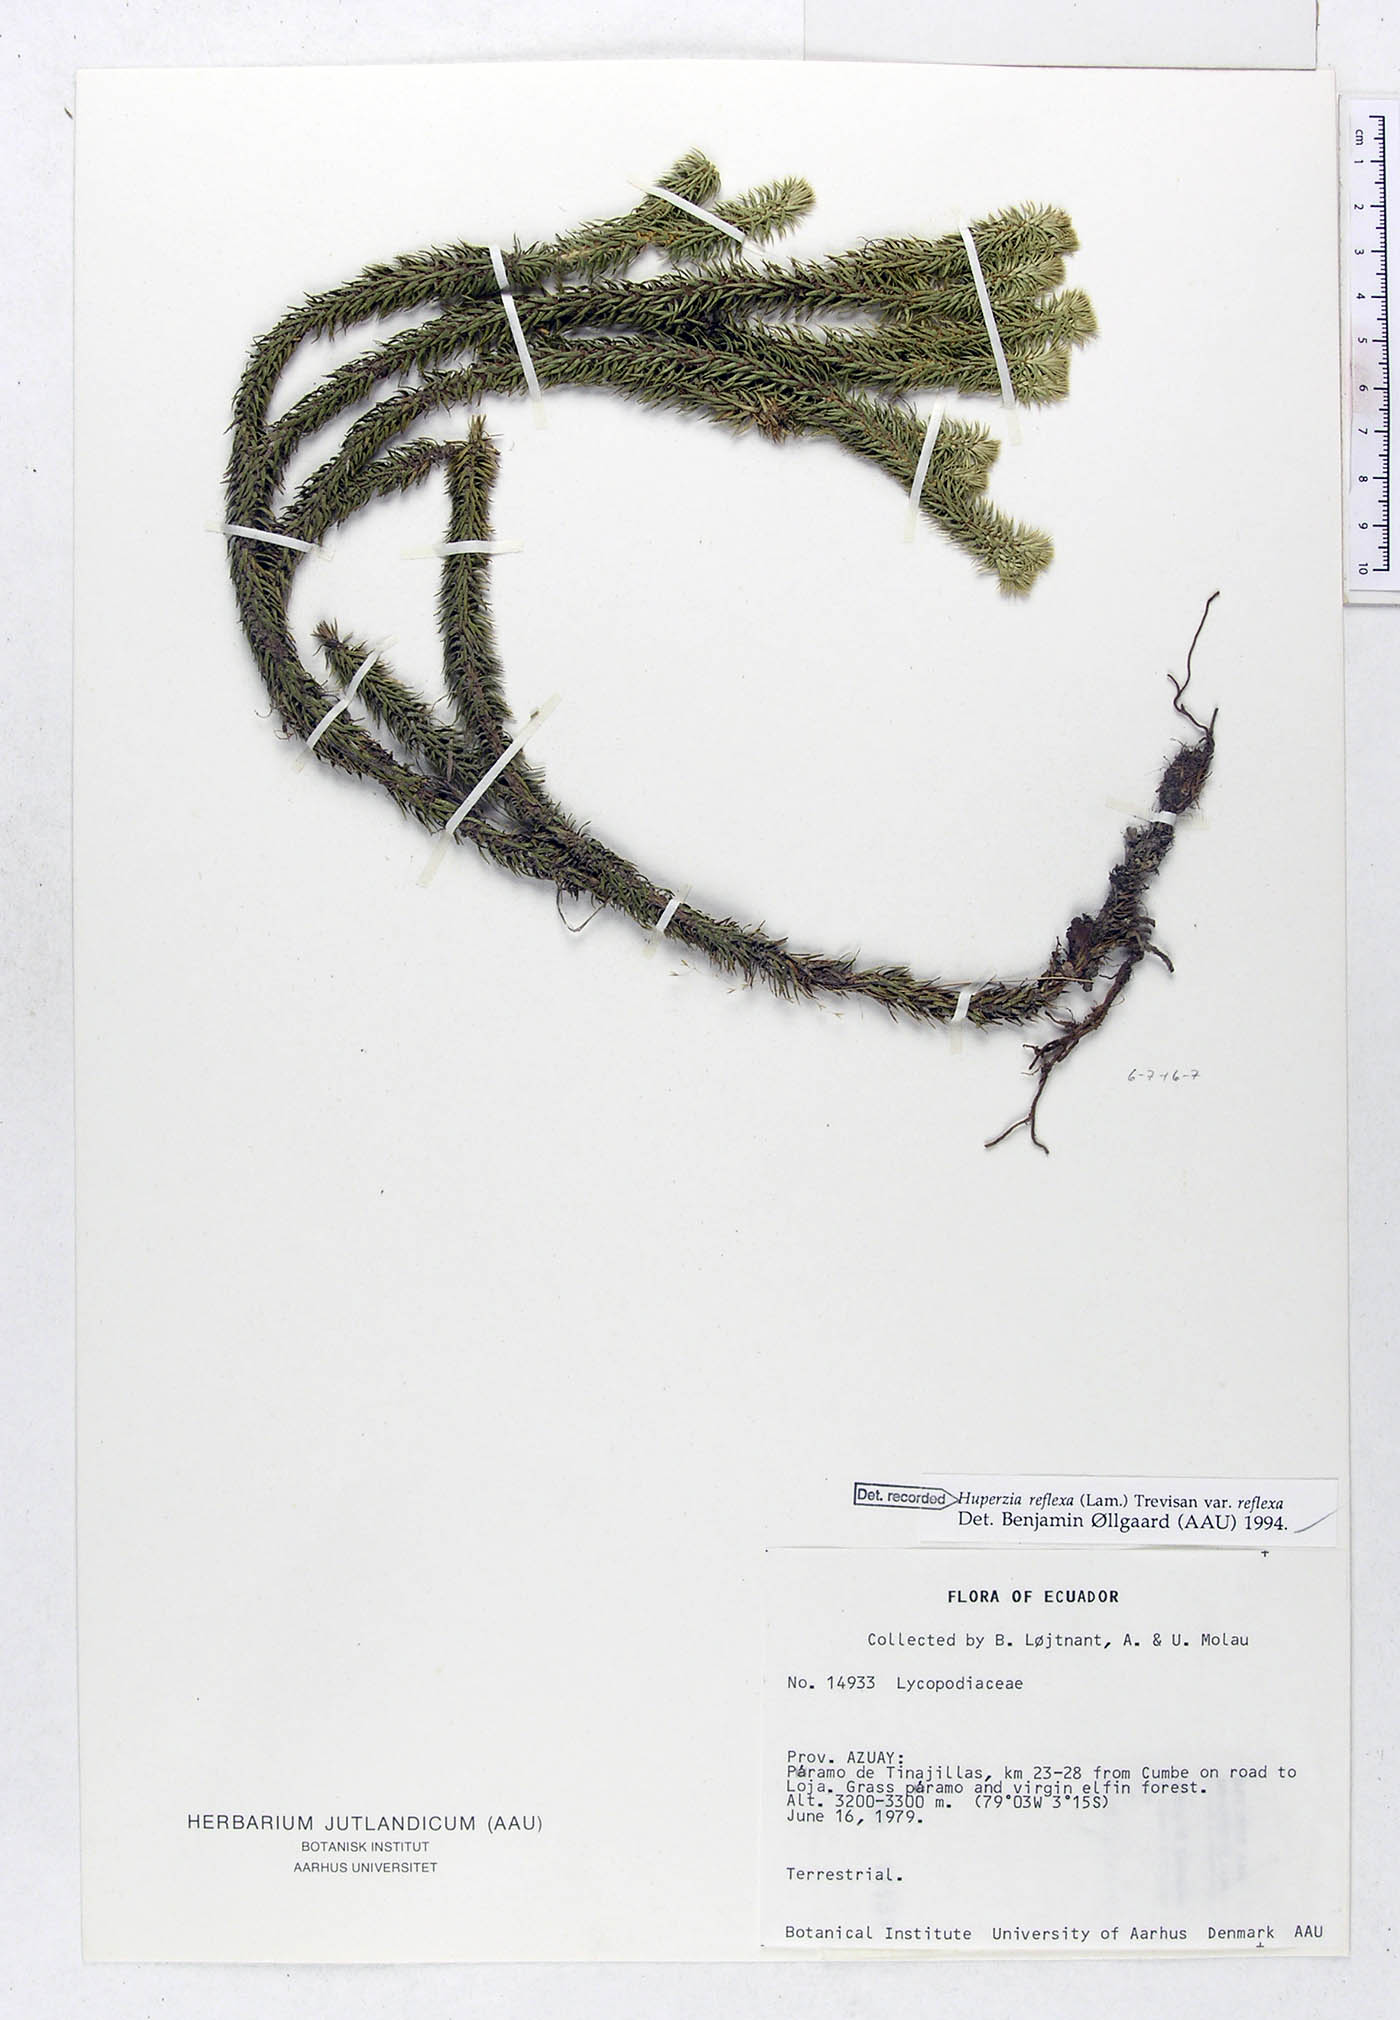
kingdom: Plantae
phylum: Tracheophyta
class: Lycopodiopsida
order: Lycopodiales
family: Lycopodiaceae
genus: Phlegmariurus
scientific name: Phlegmariurus reflexus
